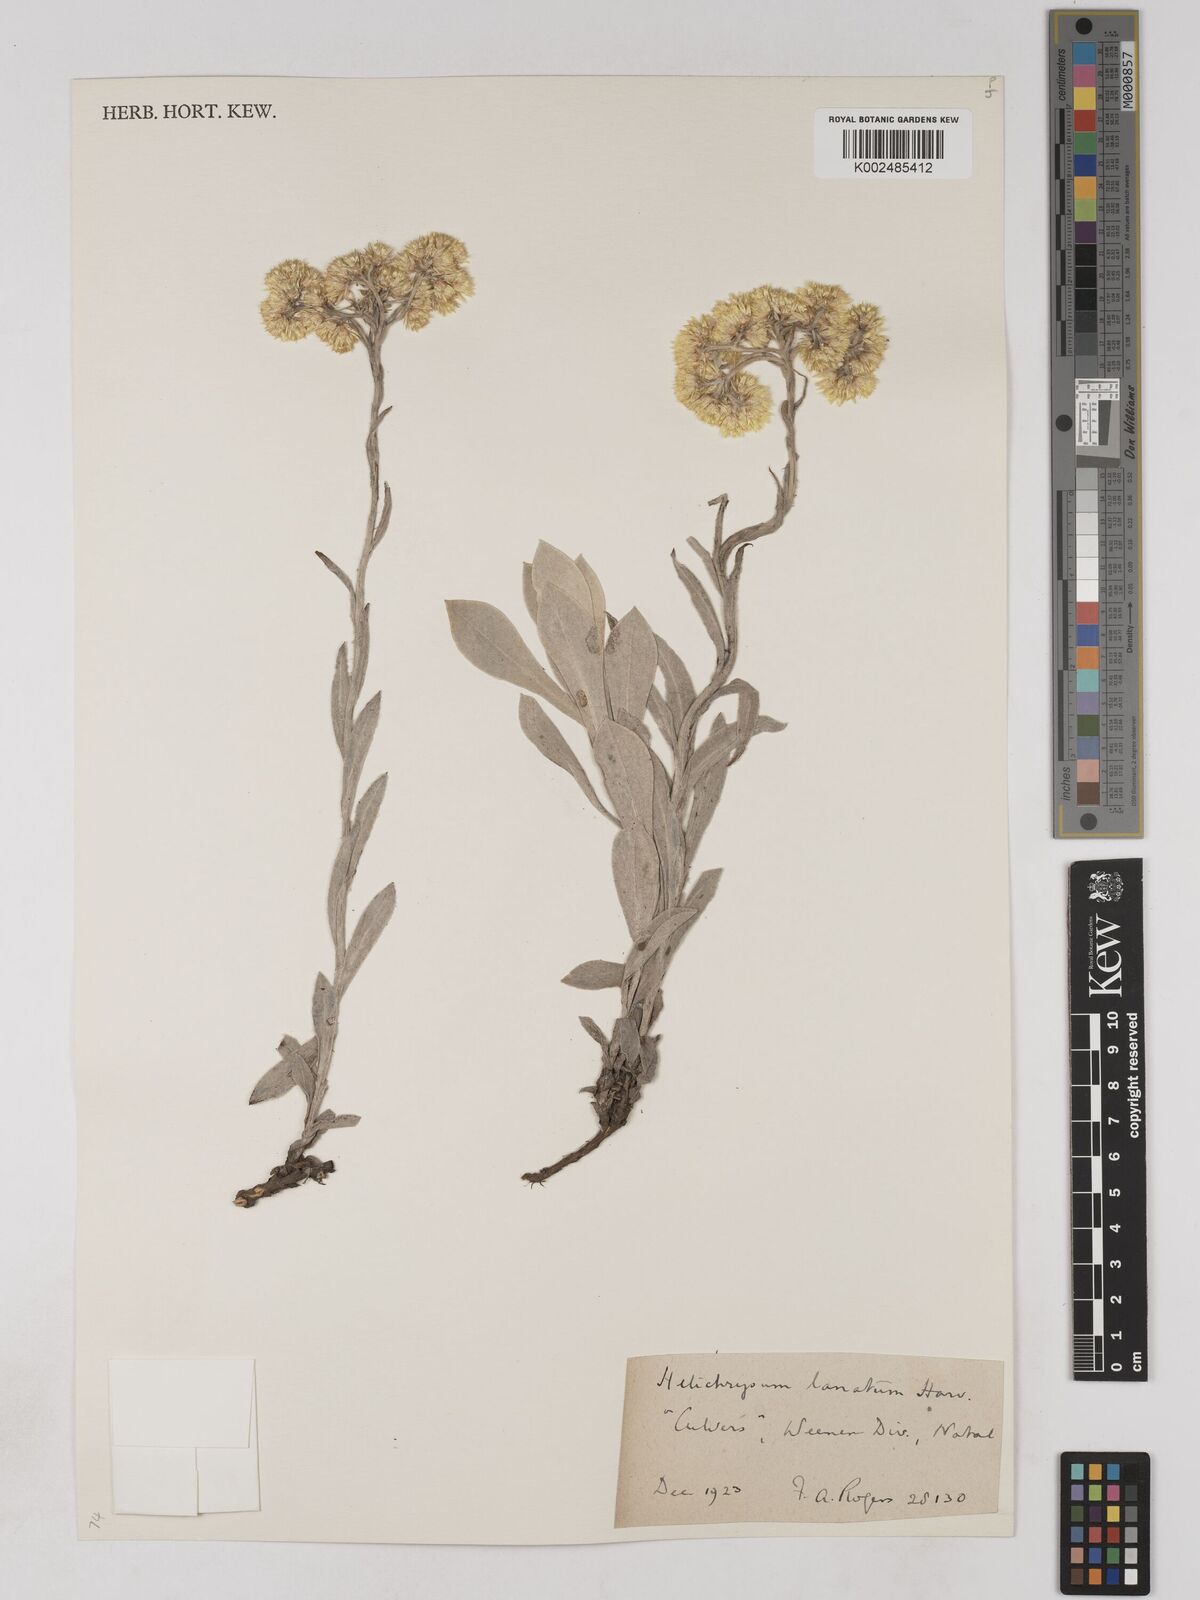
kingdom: Plantae
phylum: Tracheophyta
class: Magnoliopsida
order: Asterales
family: Asteraceae
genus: Helichrysum
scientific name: Helichrysum dasymallum
